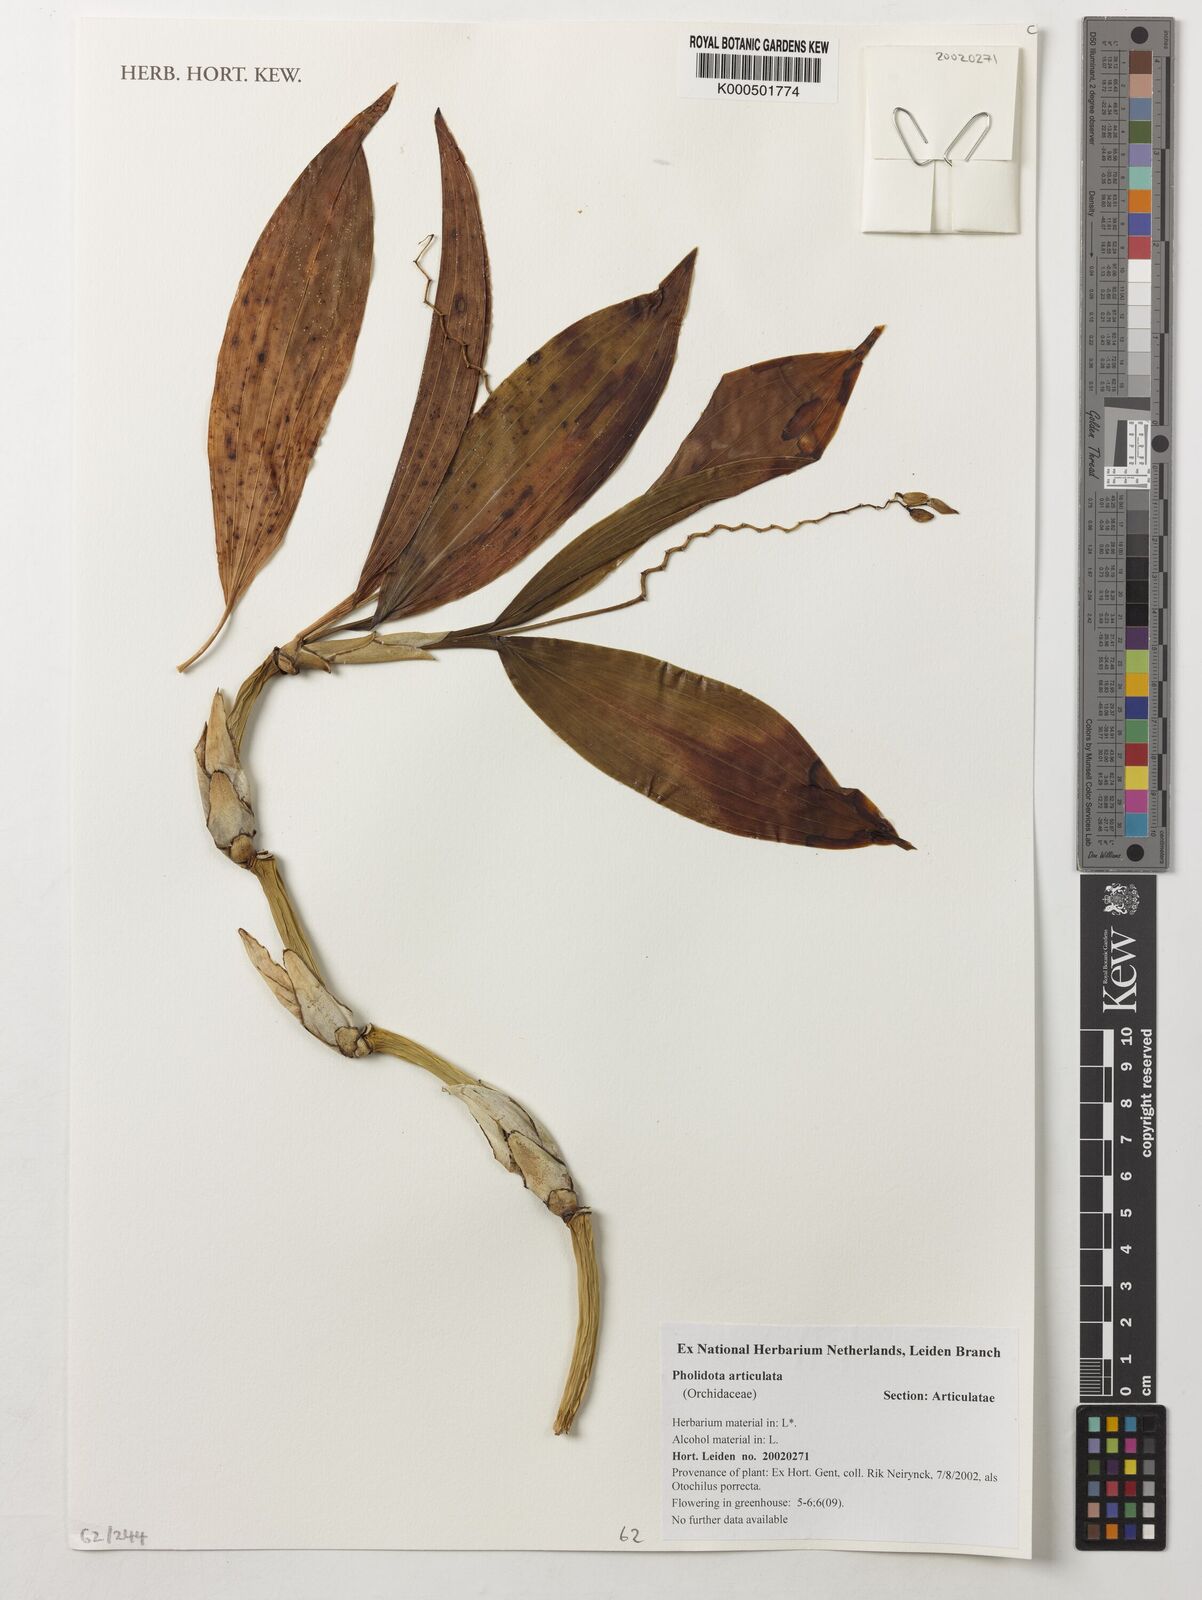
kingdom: Plantae
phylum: Tracheophyta
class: Liliopsida
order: Asparagales
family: Orchidaceae
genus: Coelogyne
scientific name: Coelogyne articulata
